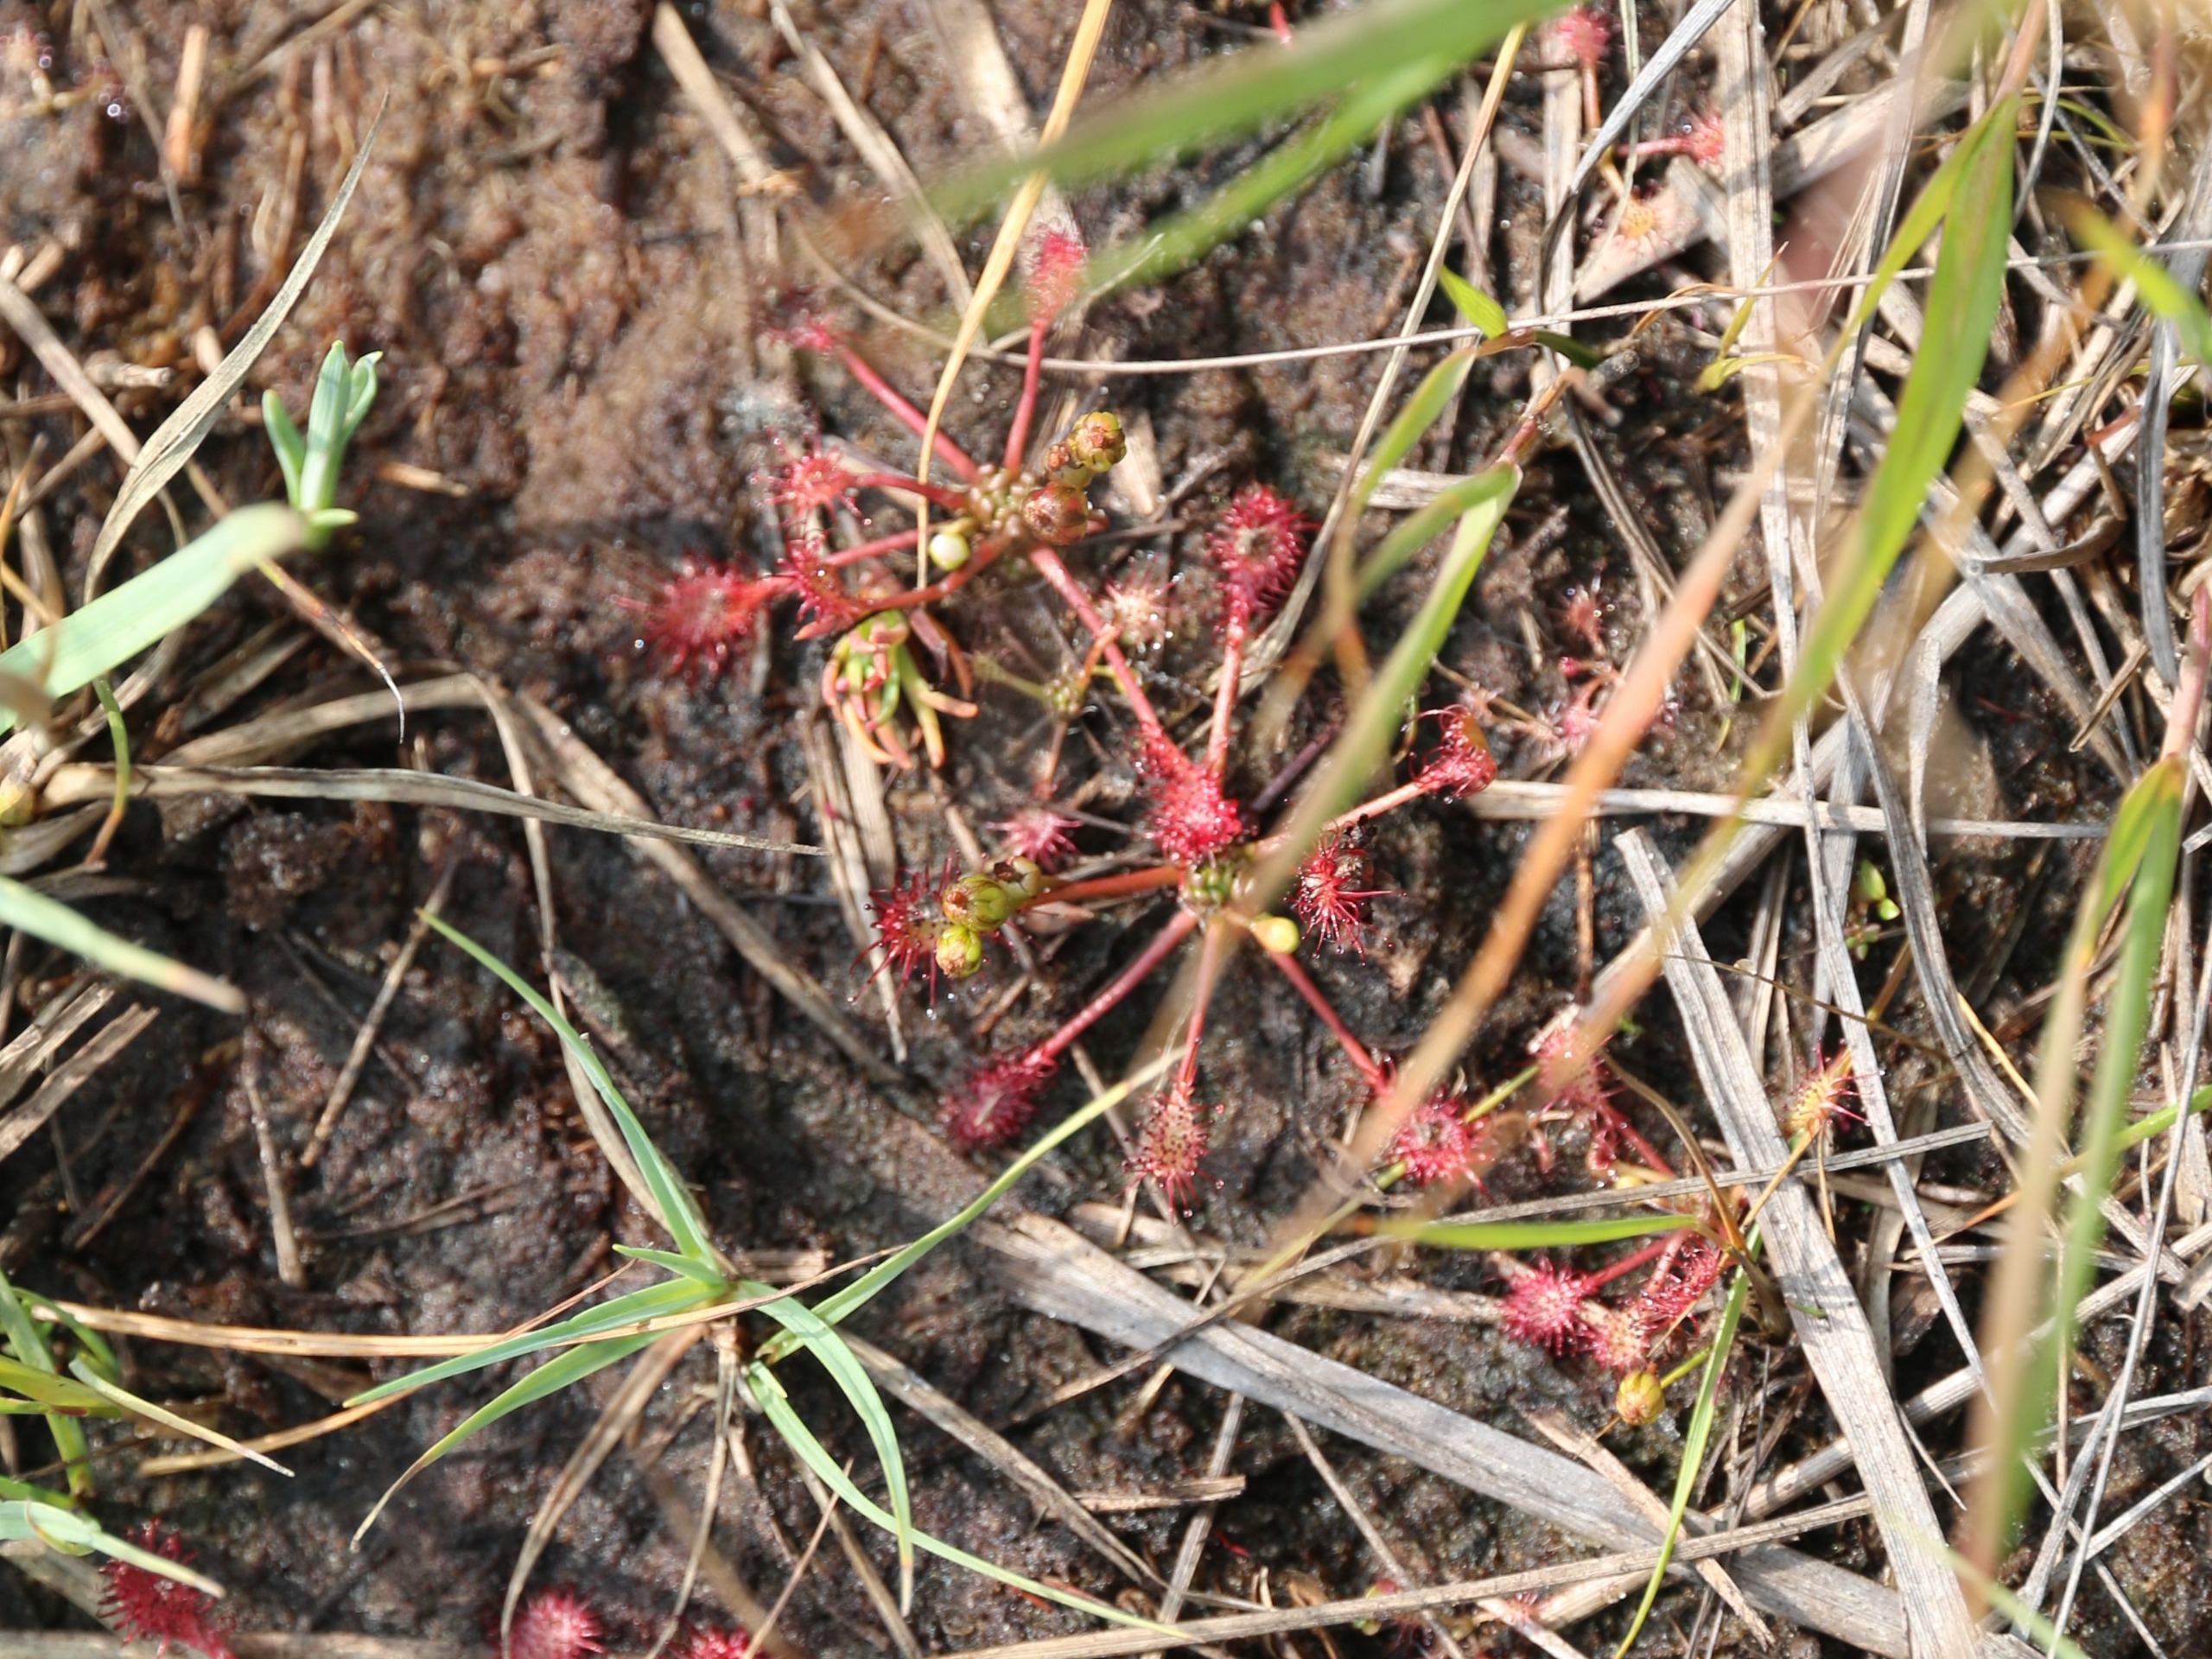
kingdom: Plantae
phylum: Tracheophyta
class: Magnoliopsida
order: Caryophyllales
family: Droseraceae
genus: Drosera
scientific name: Drosera intermedia
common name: Liden soldug
